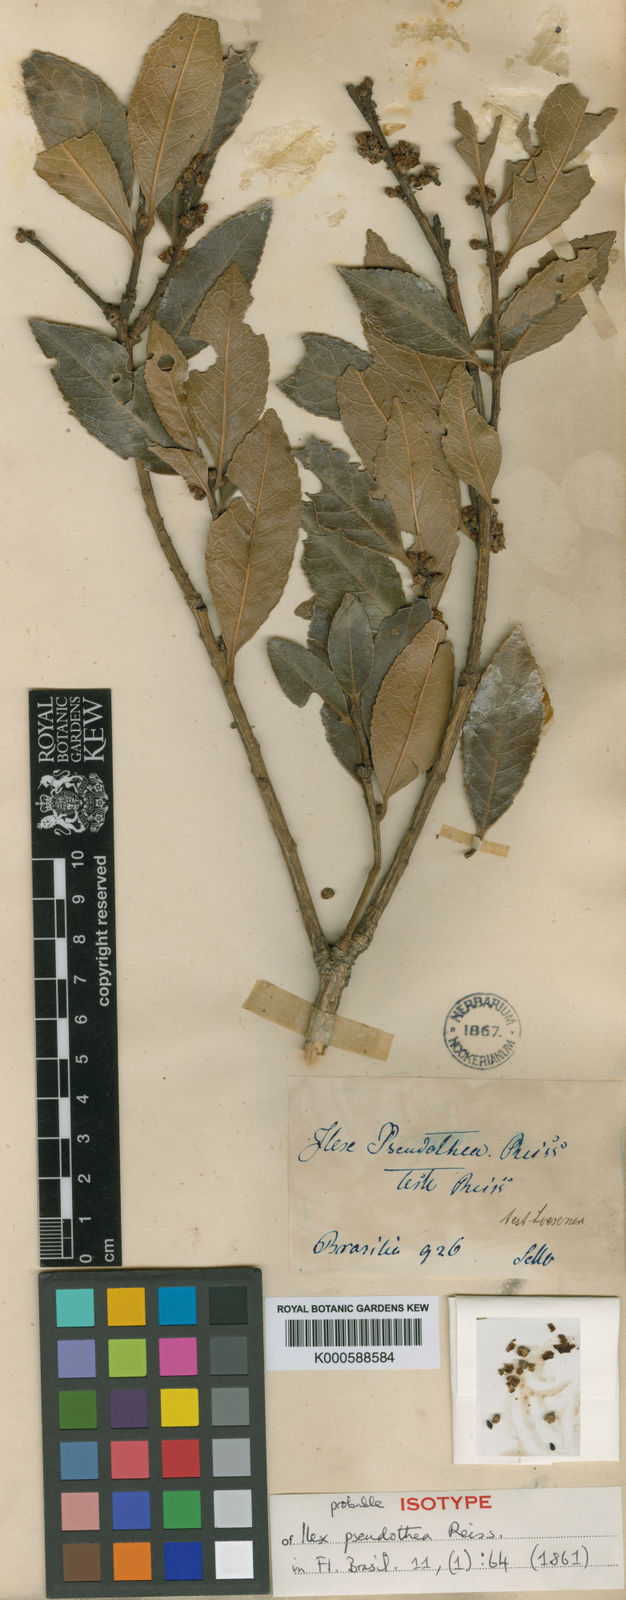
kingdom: Plantae
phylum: Tracheophyta
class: Magnoliopsida
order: Aquifoliales
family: Aquifoliaceae
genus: Ilex
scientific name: Ilex conocarpa
